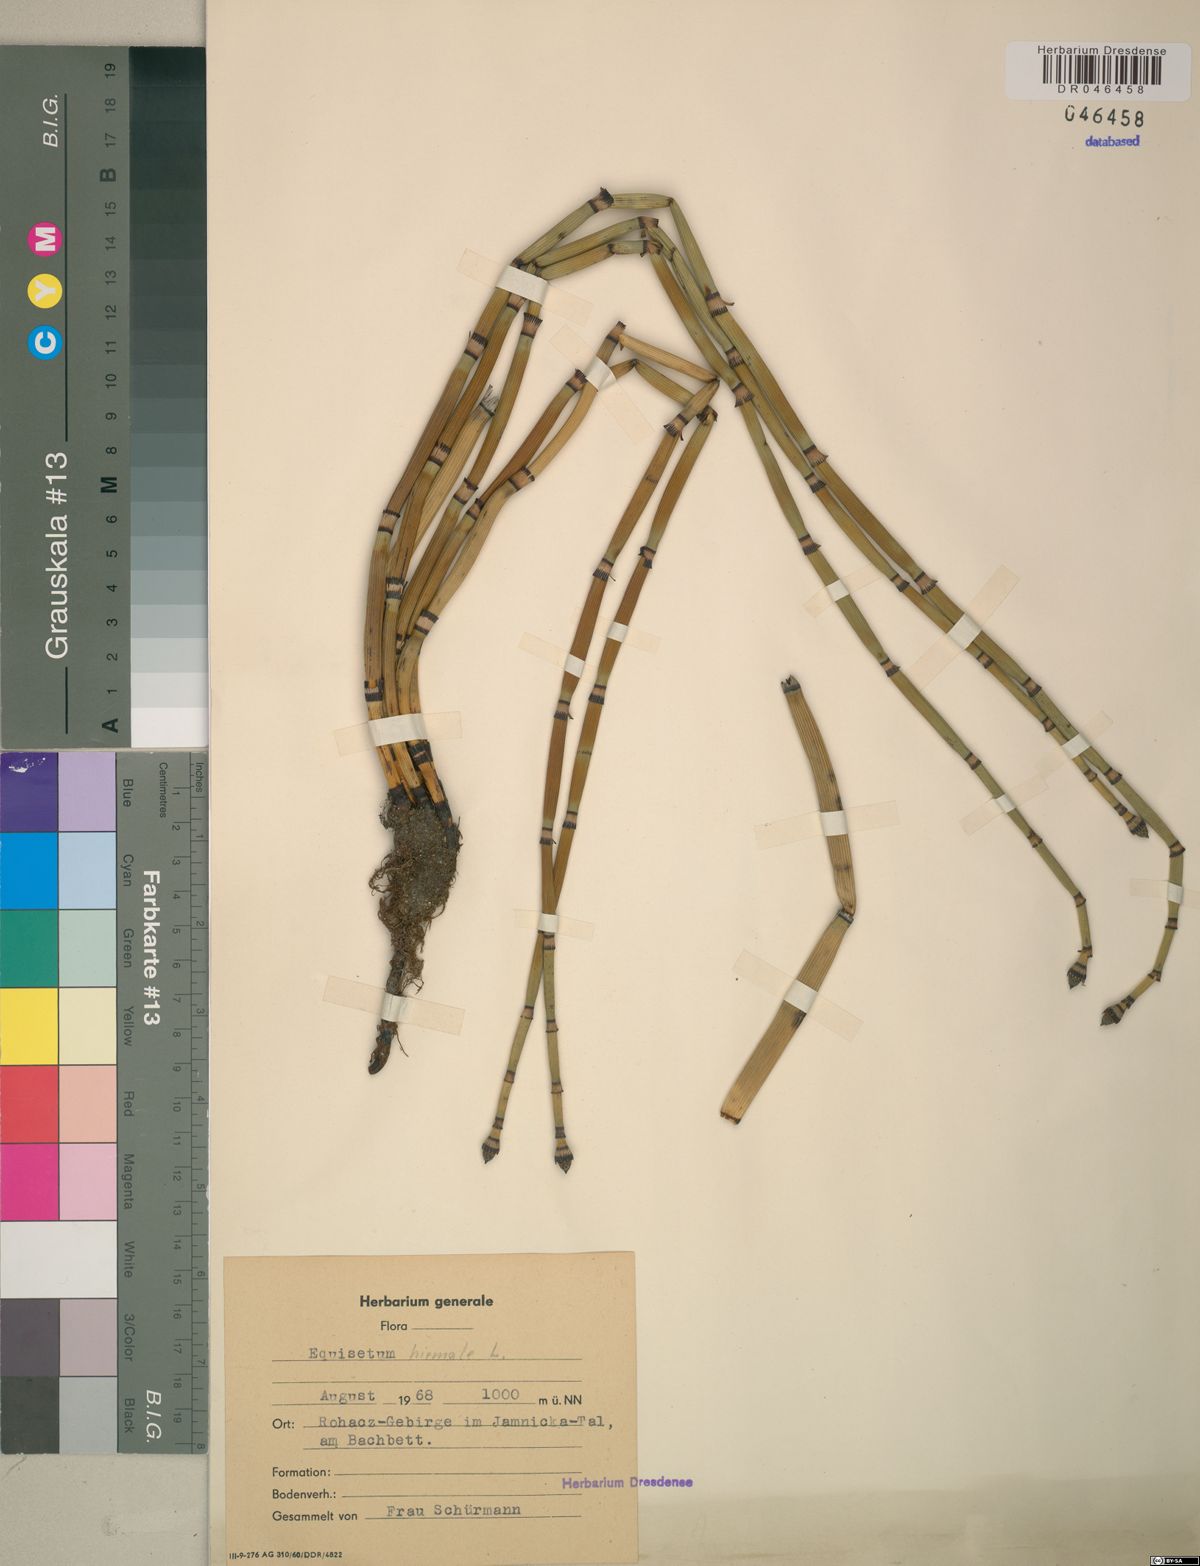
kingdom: Plantae
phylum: Tracheophyta
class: Polypodiopsida
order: Equisetales
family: Equisetaceae
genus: Equisetum
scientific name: Equisetum hyemale
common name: Rough horsetail
